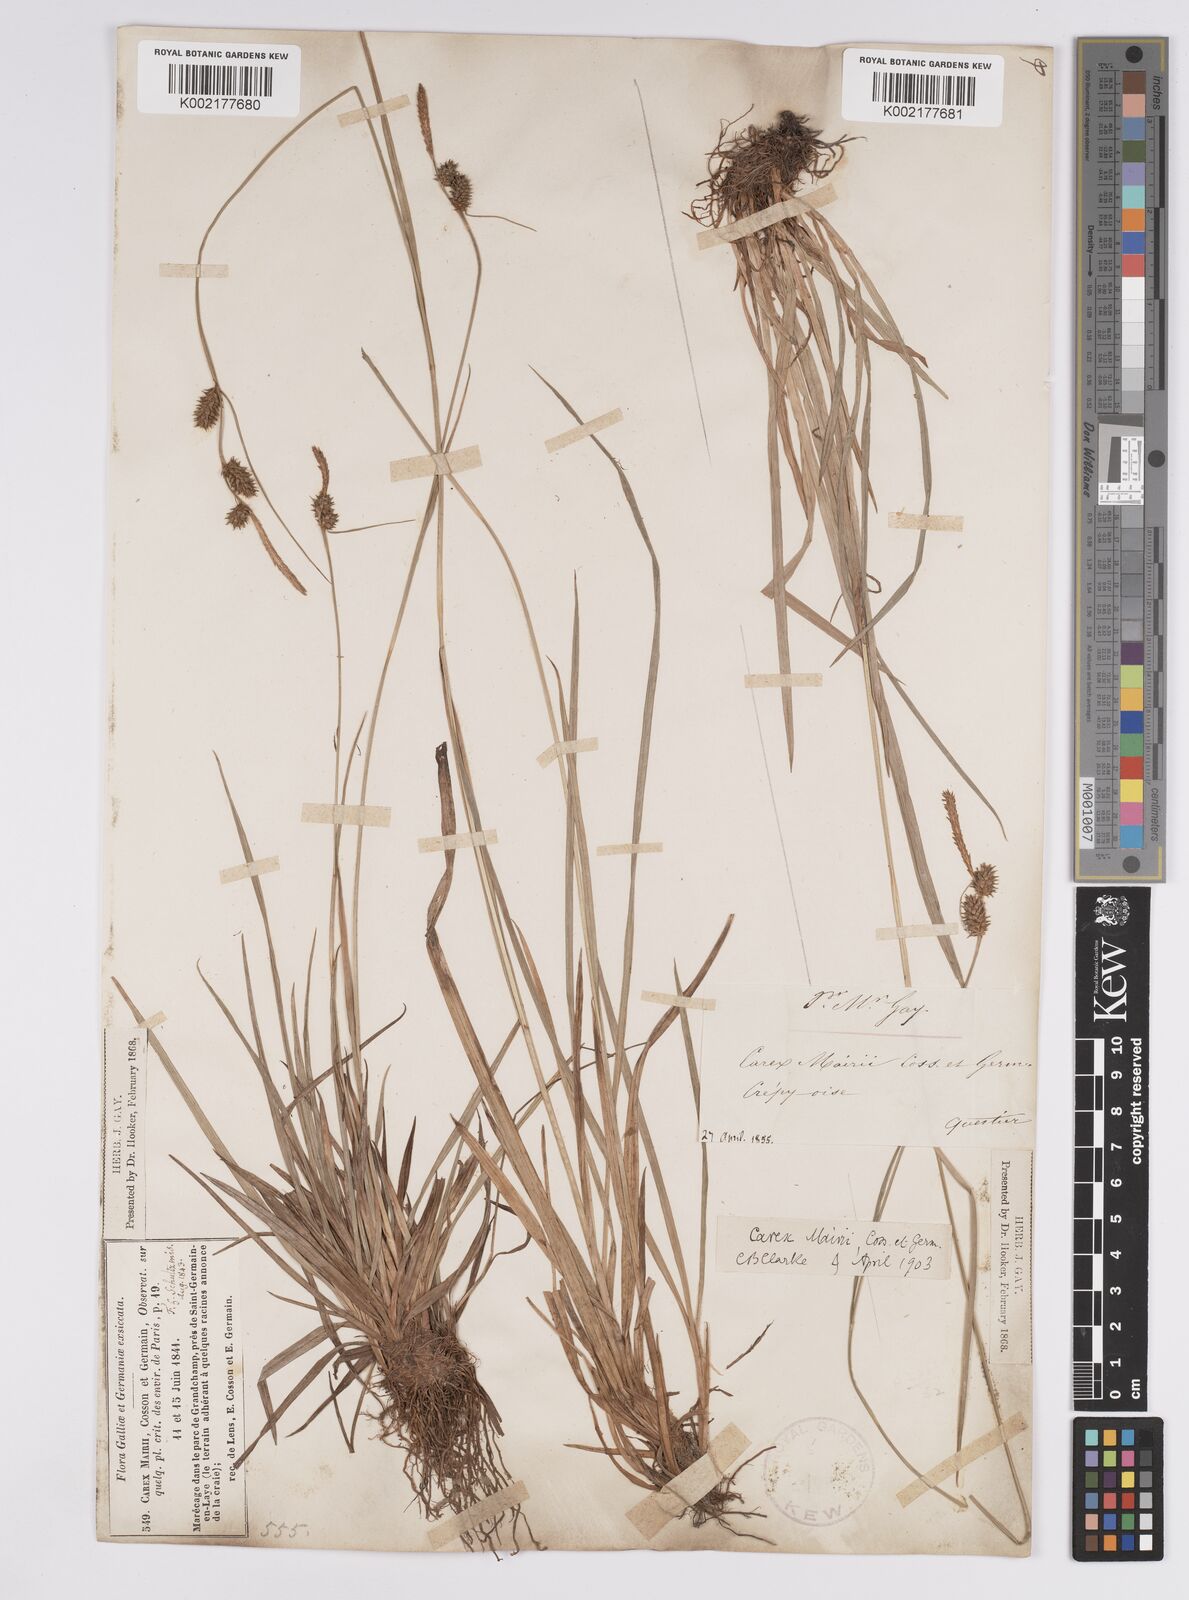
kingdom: Plantae
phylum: Tracheophyta
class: Liliopsida
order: Poales
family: Cyperaceae
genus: Carex
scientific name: Carex mairei
